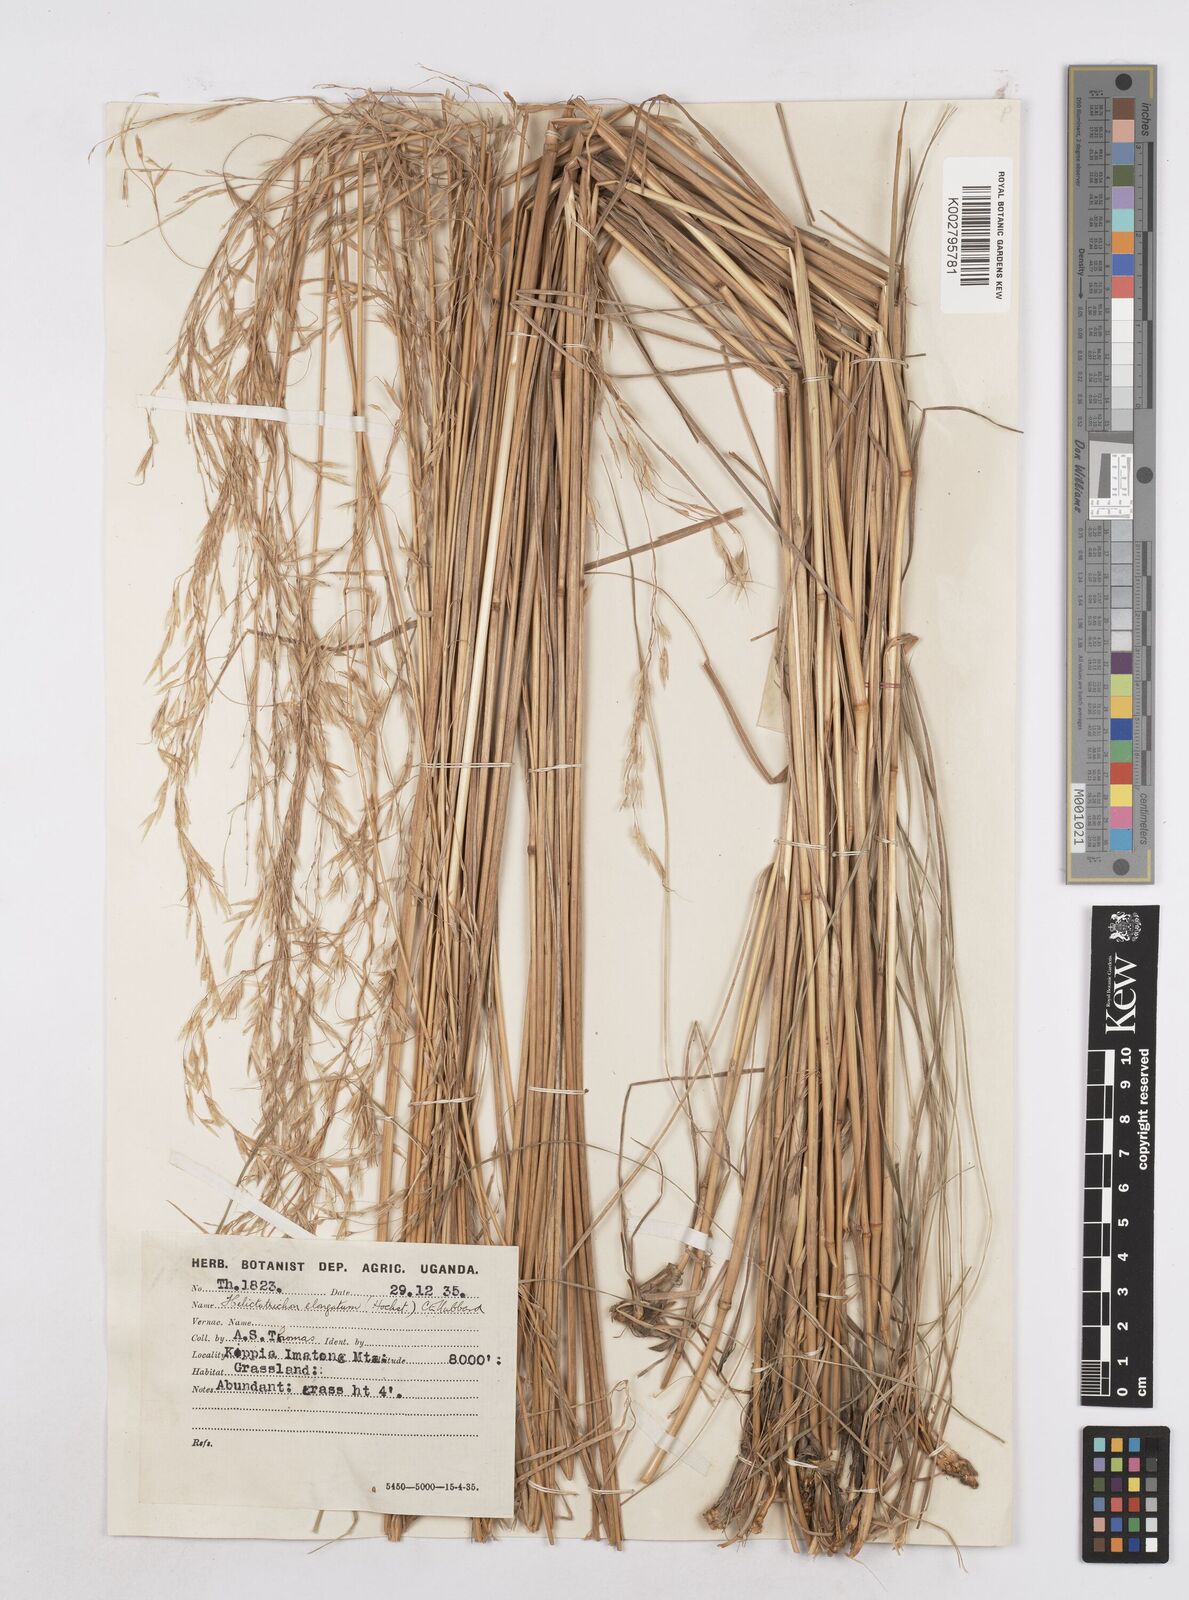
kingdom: Plantae
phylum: Tracheophyta
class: Liliopsida
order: Poales
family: Poaceae
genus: Trisetopsis
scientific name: Trisetopsis elongata
